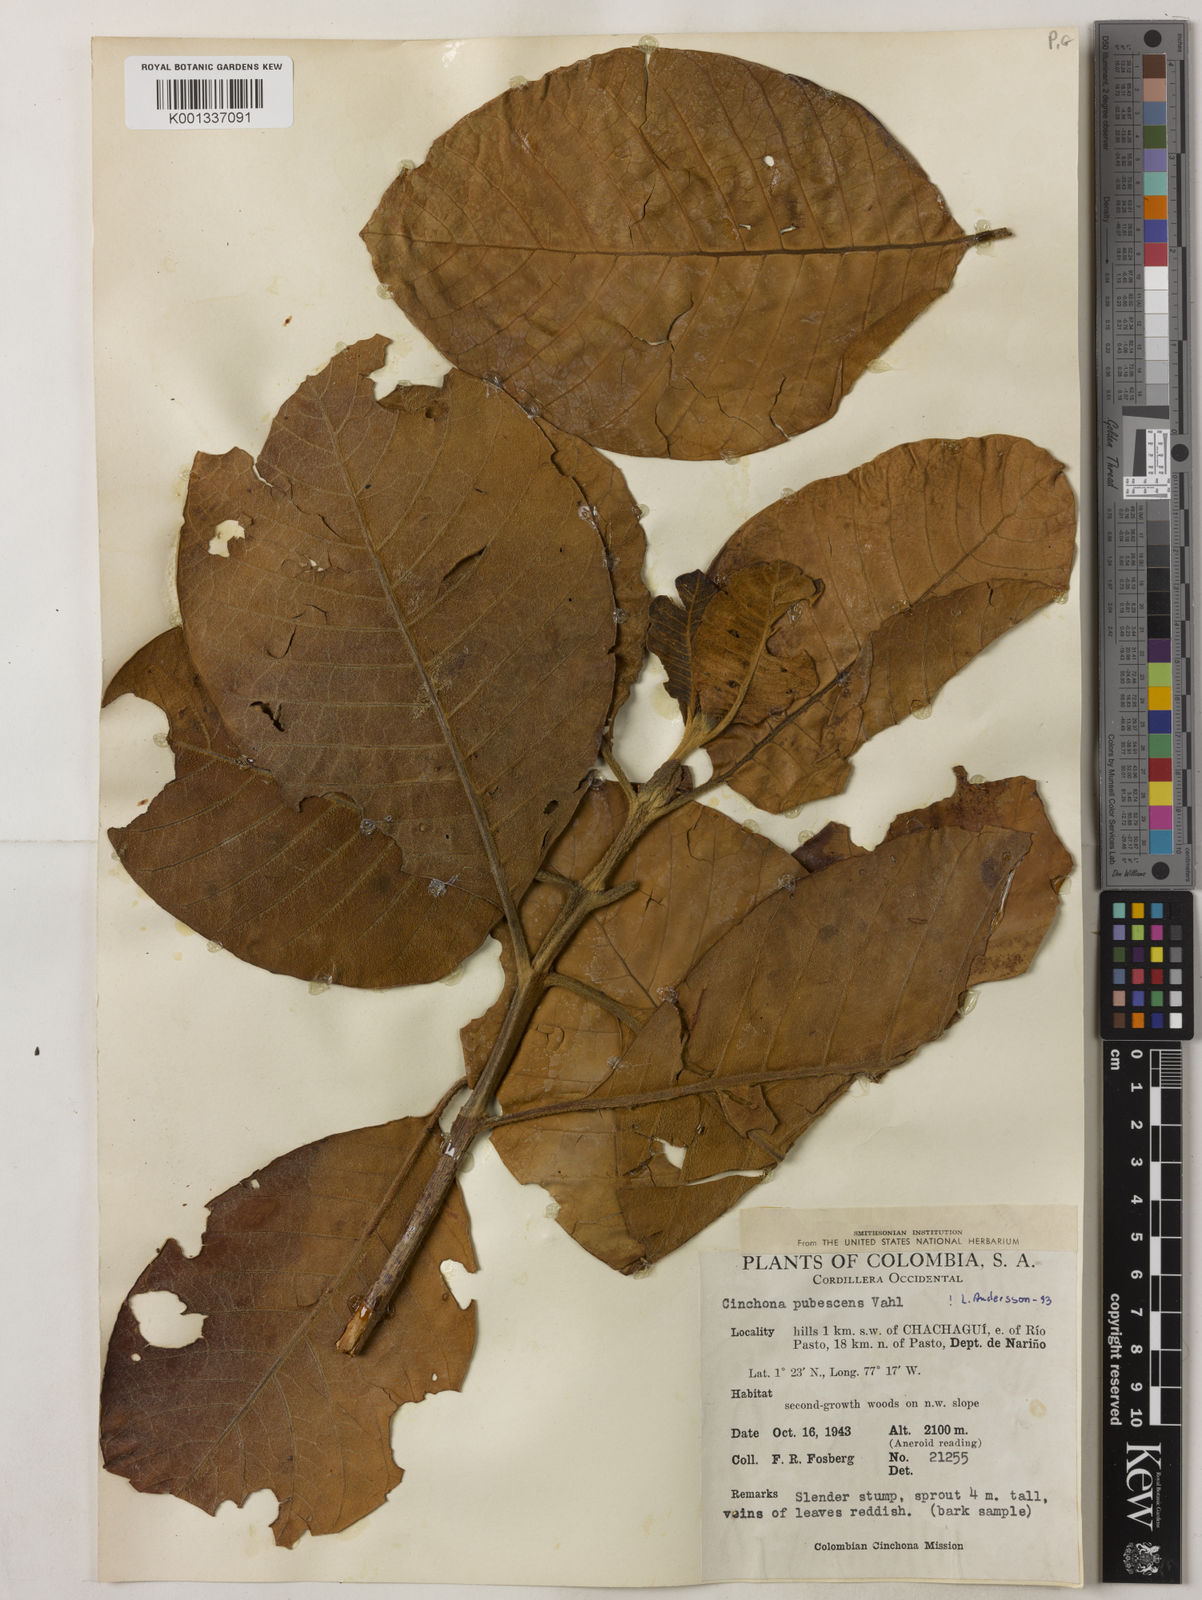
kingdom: Plantae
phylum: Tracheophyta
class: Magnoliopsida
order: Gentianales
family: Rubiaceae
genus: Cinchona
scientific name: Cinchona pubescens
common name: Quinine
